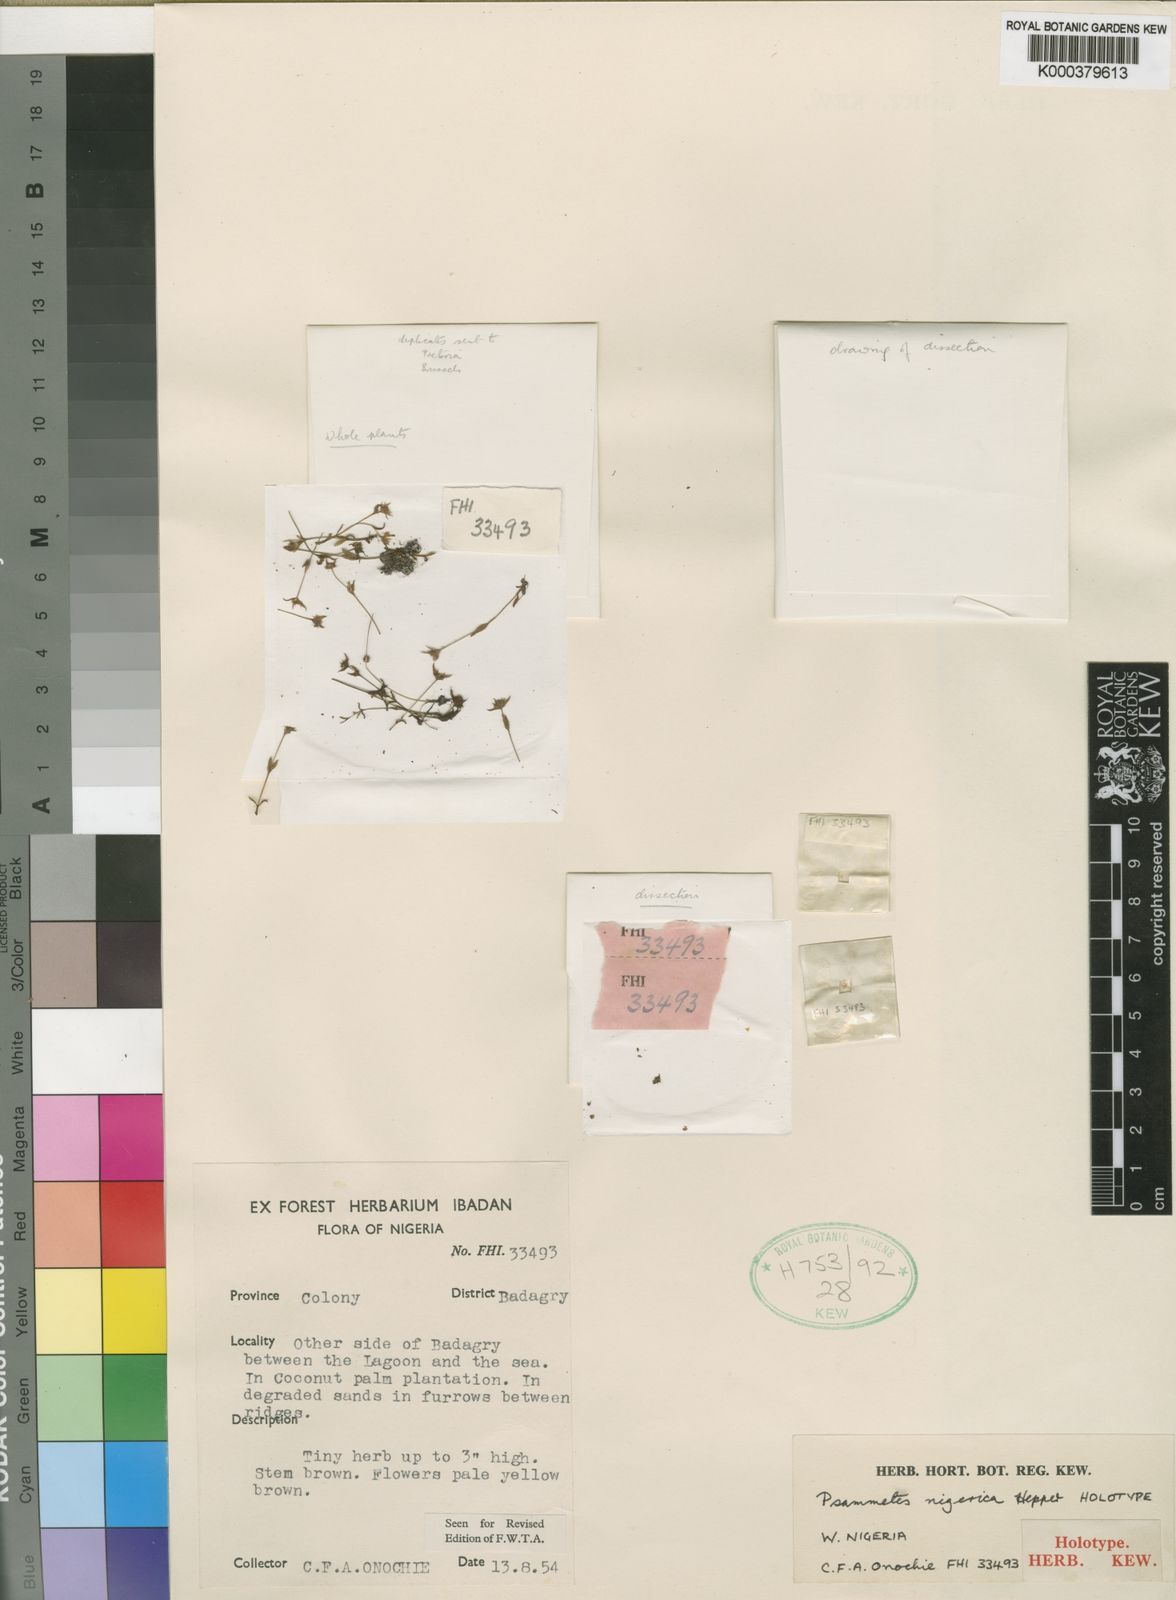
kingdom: Plantae
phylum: Tracheophyta
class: Magnoliopsida
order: Lamiales
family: Linderniaceae
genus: Lindernia
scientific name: Lindernia madagascariensis
